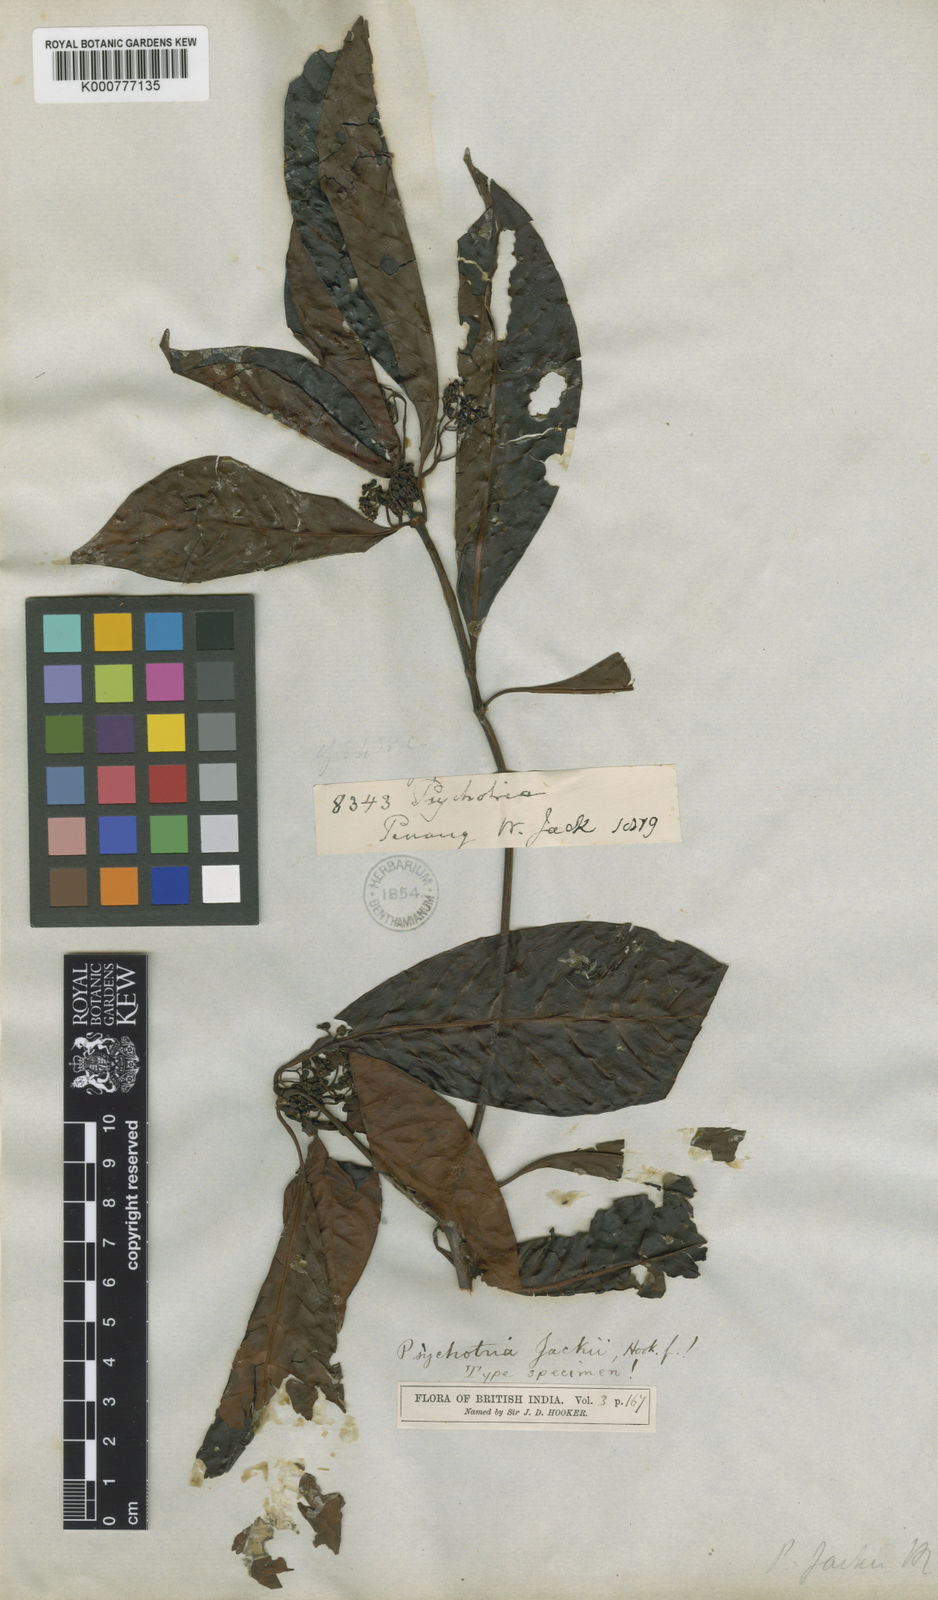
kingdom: Plantae
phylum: Tracheophyta
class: Magnoliopsida
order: Gentianales
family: Rubiaceae
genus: Psychotria
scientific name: Psychotria cuspidella
